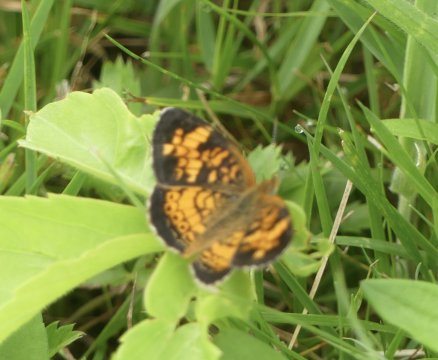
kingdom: Animalia
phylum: Arthropoda
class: Insecta
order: Lepidoptera
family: Nymphalidae
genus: Phyciodes
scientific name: Phyciodes tharos
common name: Pearl Crescent
